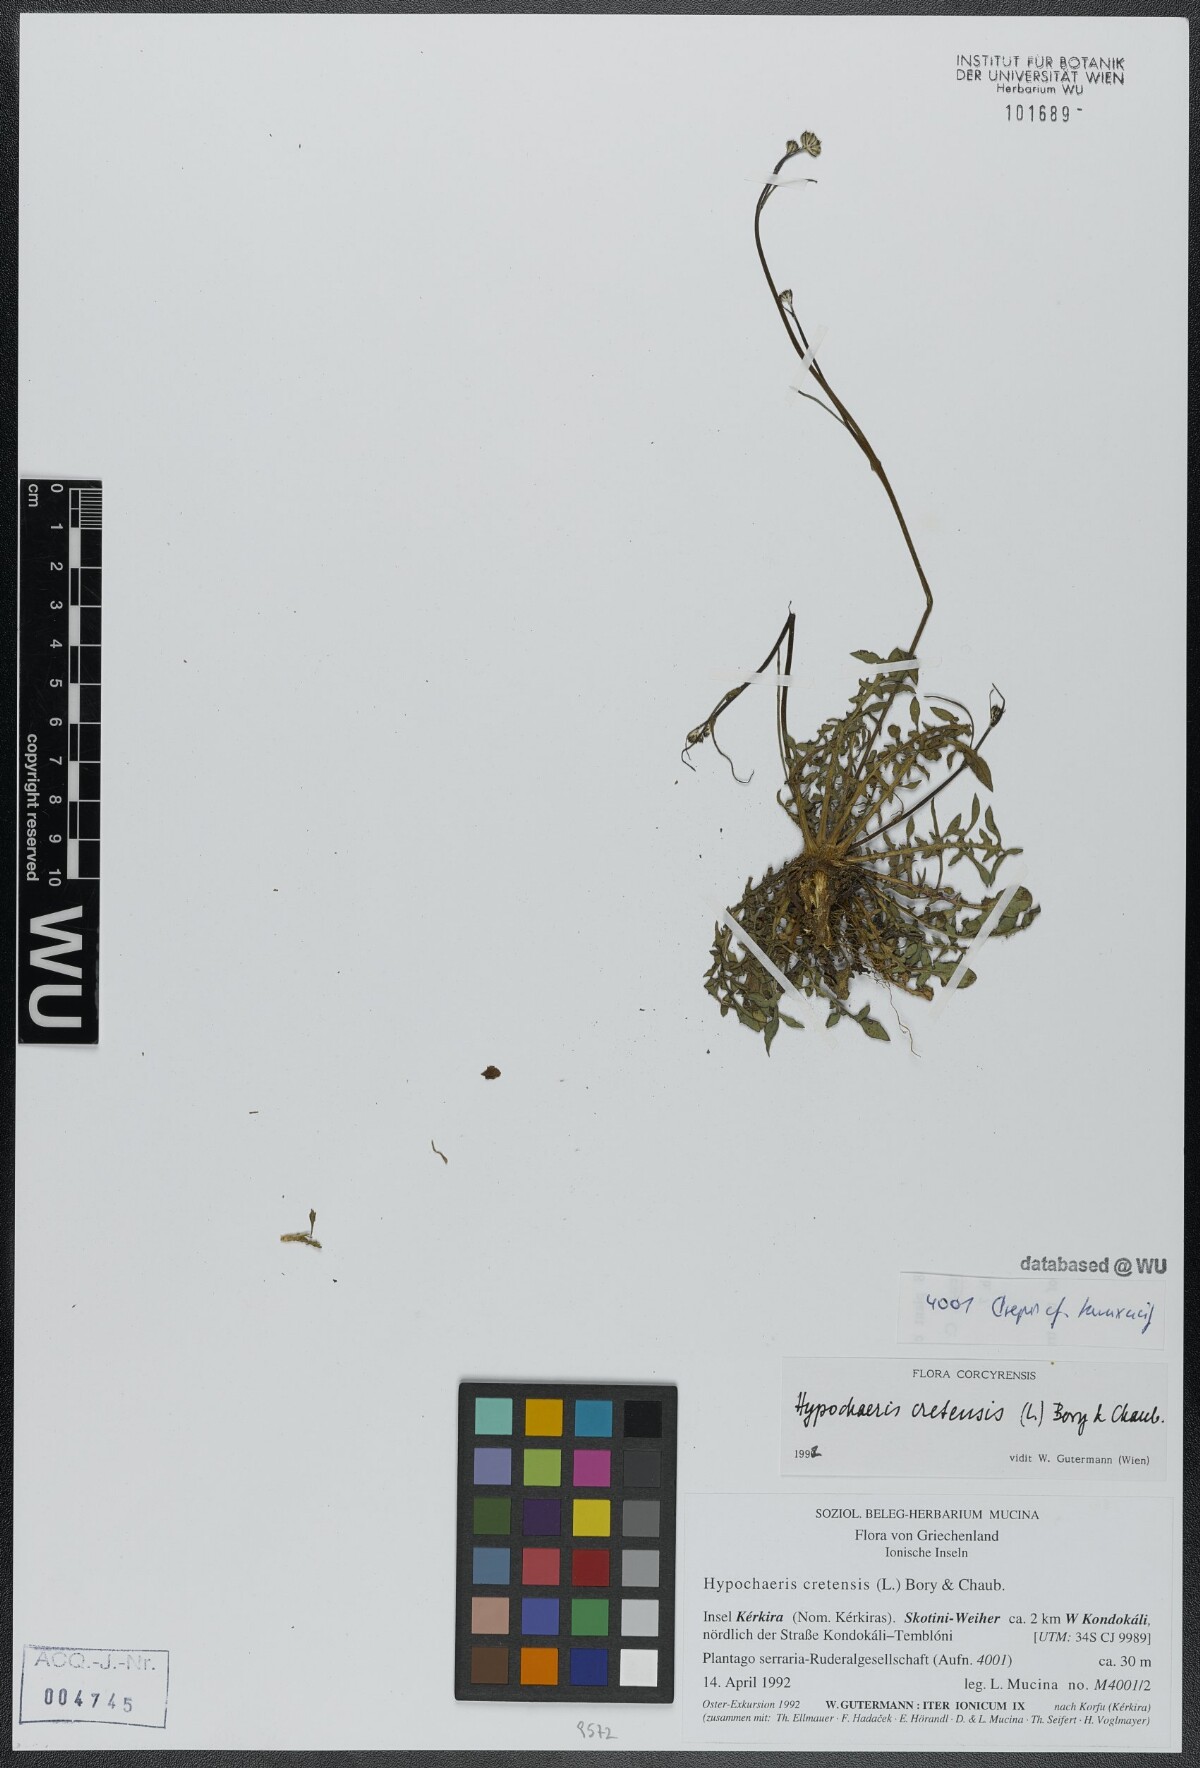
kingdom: Plantae
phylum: Tracheophyta
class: Magnoliopsida
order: Asterales
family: Asteraceae
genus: Hypochaeris
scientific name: Hypochaeris cretensis
